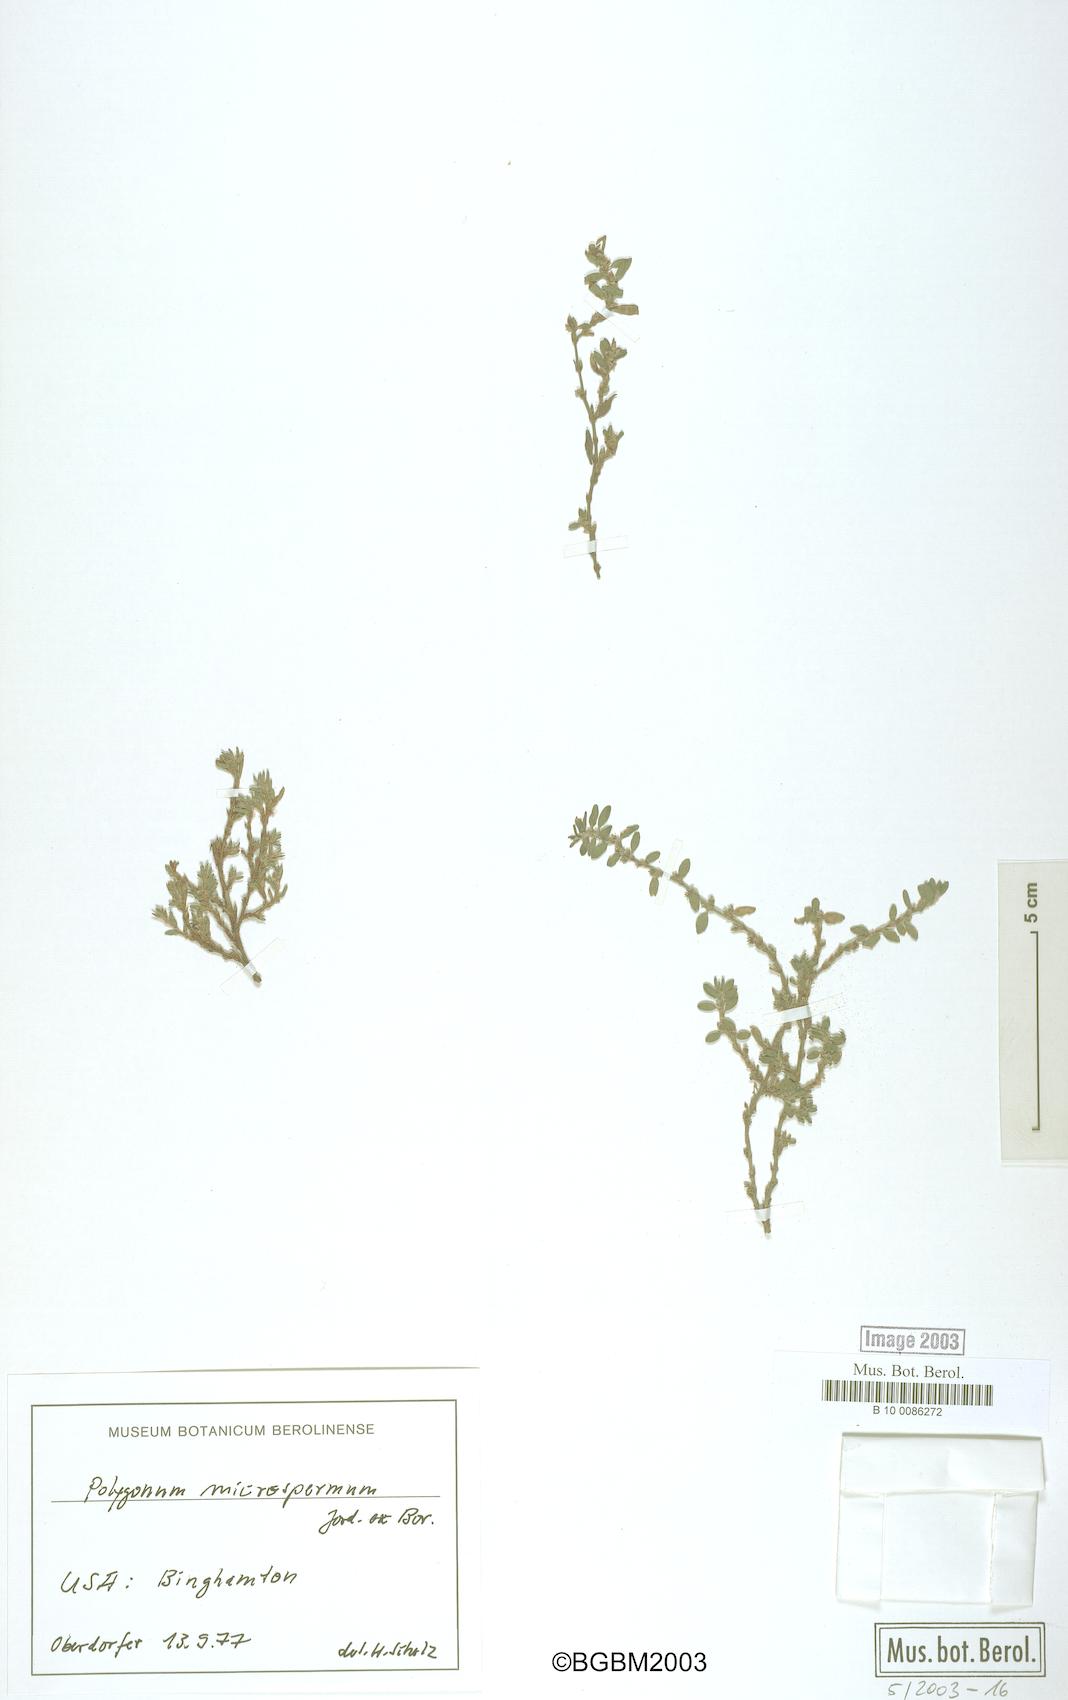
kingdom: Plantae
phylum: Tracheophyta
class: Magnoliopsida
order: Caryophyllales
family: Polygonaceae
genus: Polygonum
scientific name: Polygonum
